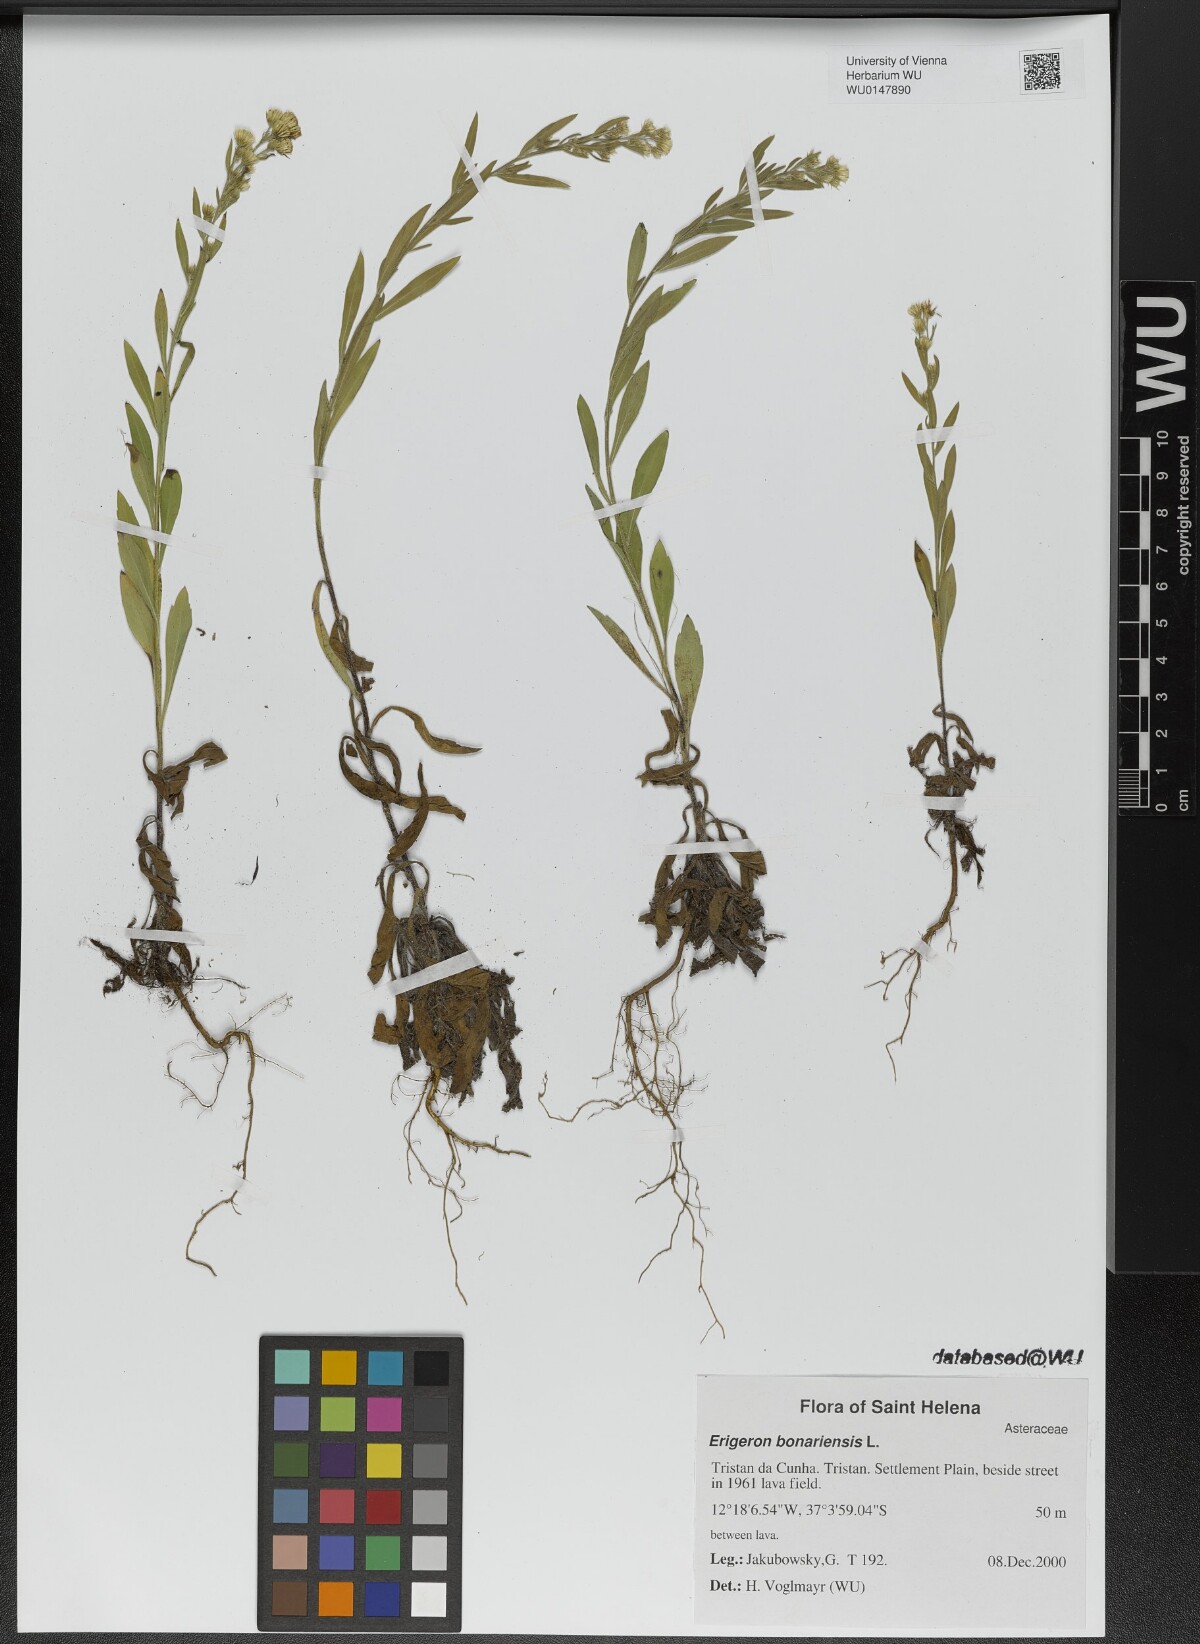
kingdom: Plantae
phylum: Tracheophyta
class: Magnoliopsida
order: Asterales
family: Asteraceae
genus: Erigeron
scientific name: Erigeron bonariensis
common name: Argentine fleabane
